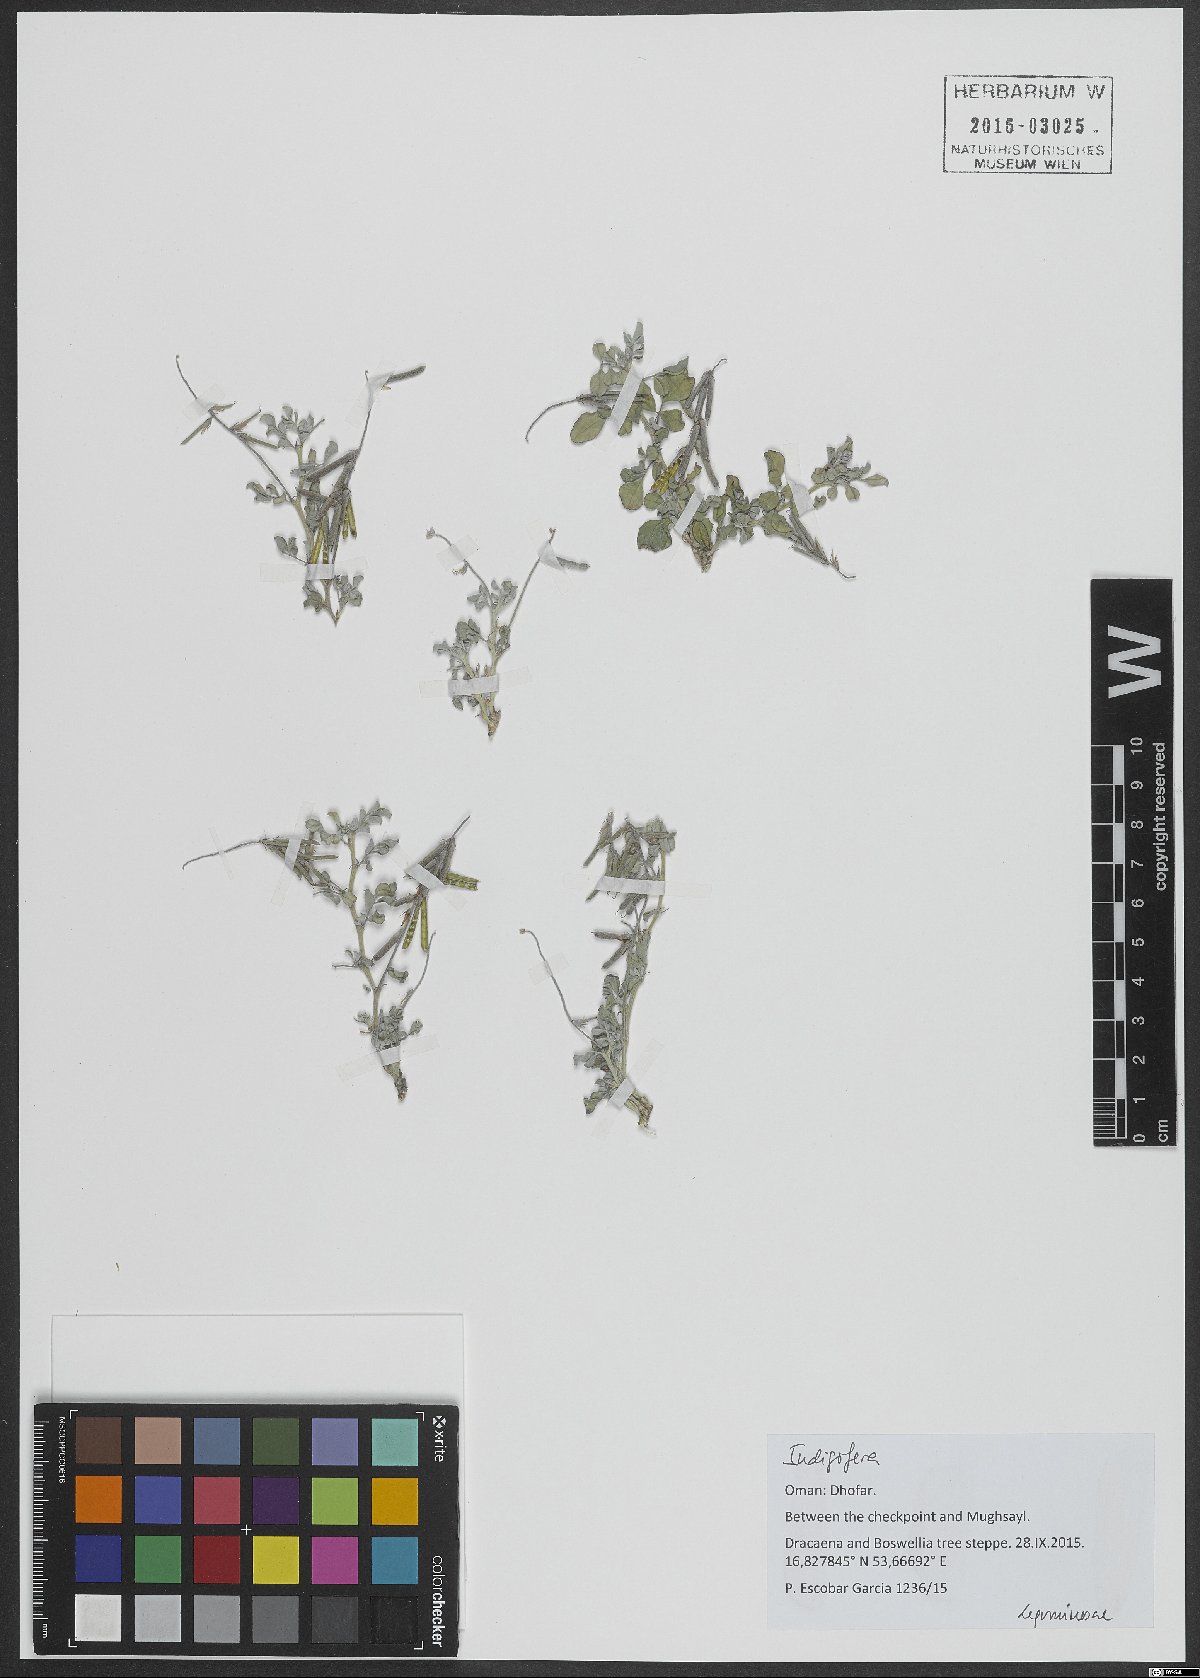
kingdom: Plantae
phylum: Tracheophyta
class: Magnoliopsida
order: Fabales
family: Fabaceae
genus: Indigofera
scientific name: Indigofera
